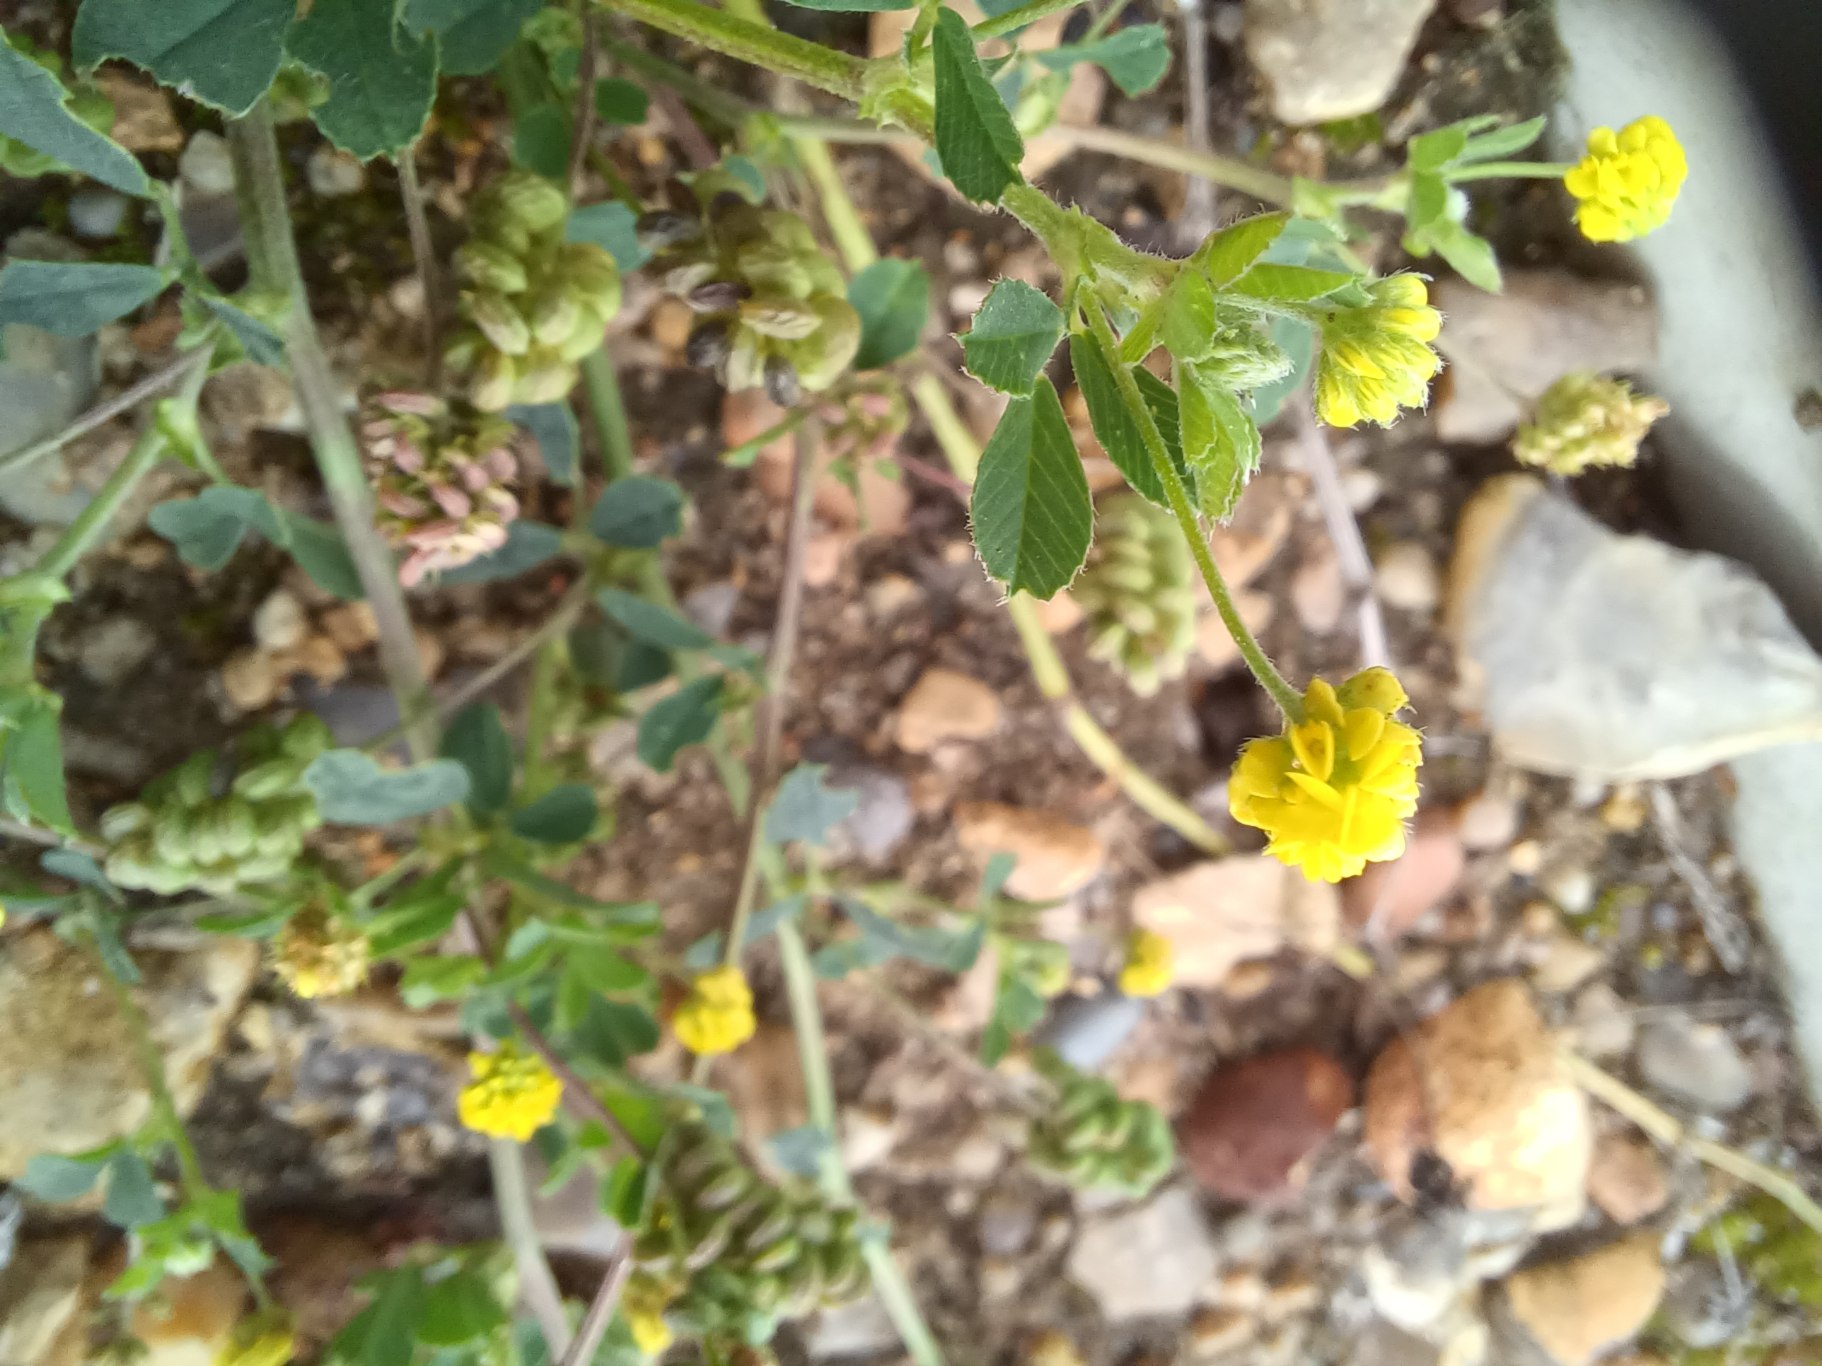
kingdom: Plantae
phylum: Tracheophyta
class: Magnoliopsida
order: Fabales
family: Fabaceae
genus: Medicago
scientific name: Medicago lupulina
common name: Humle-sneglebælg
